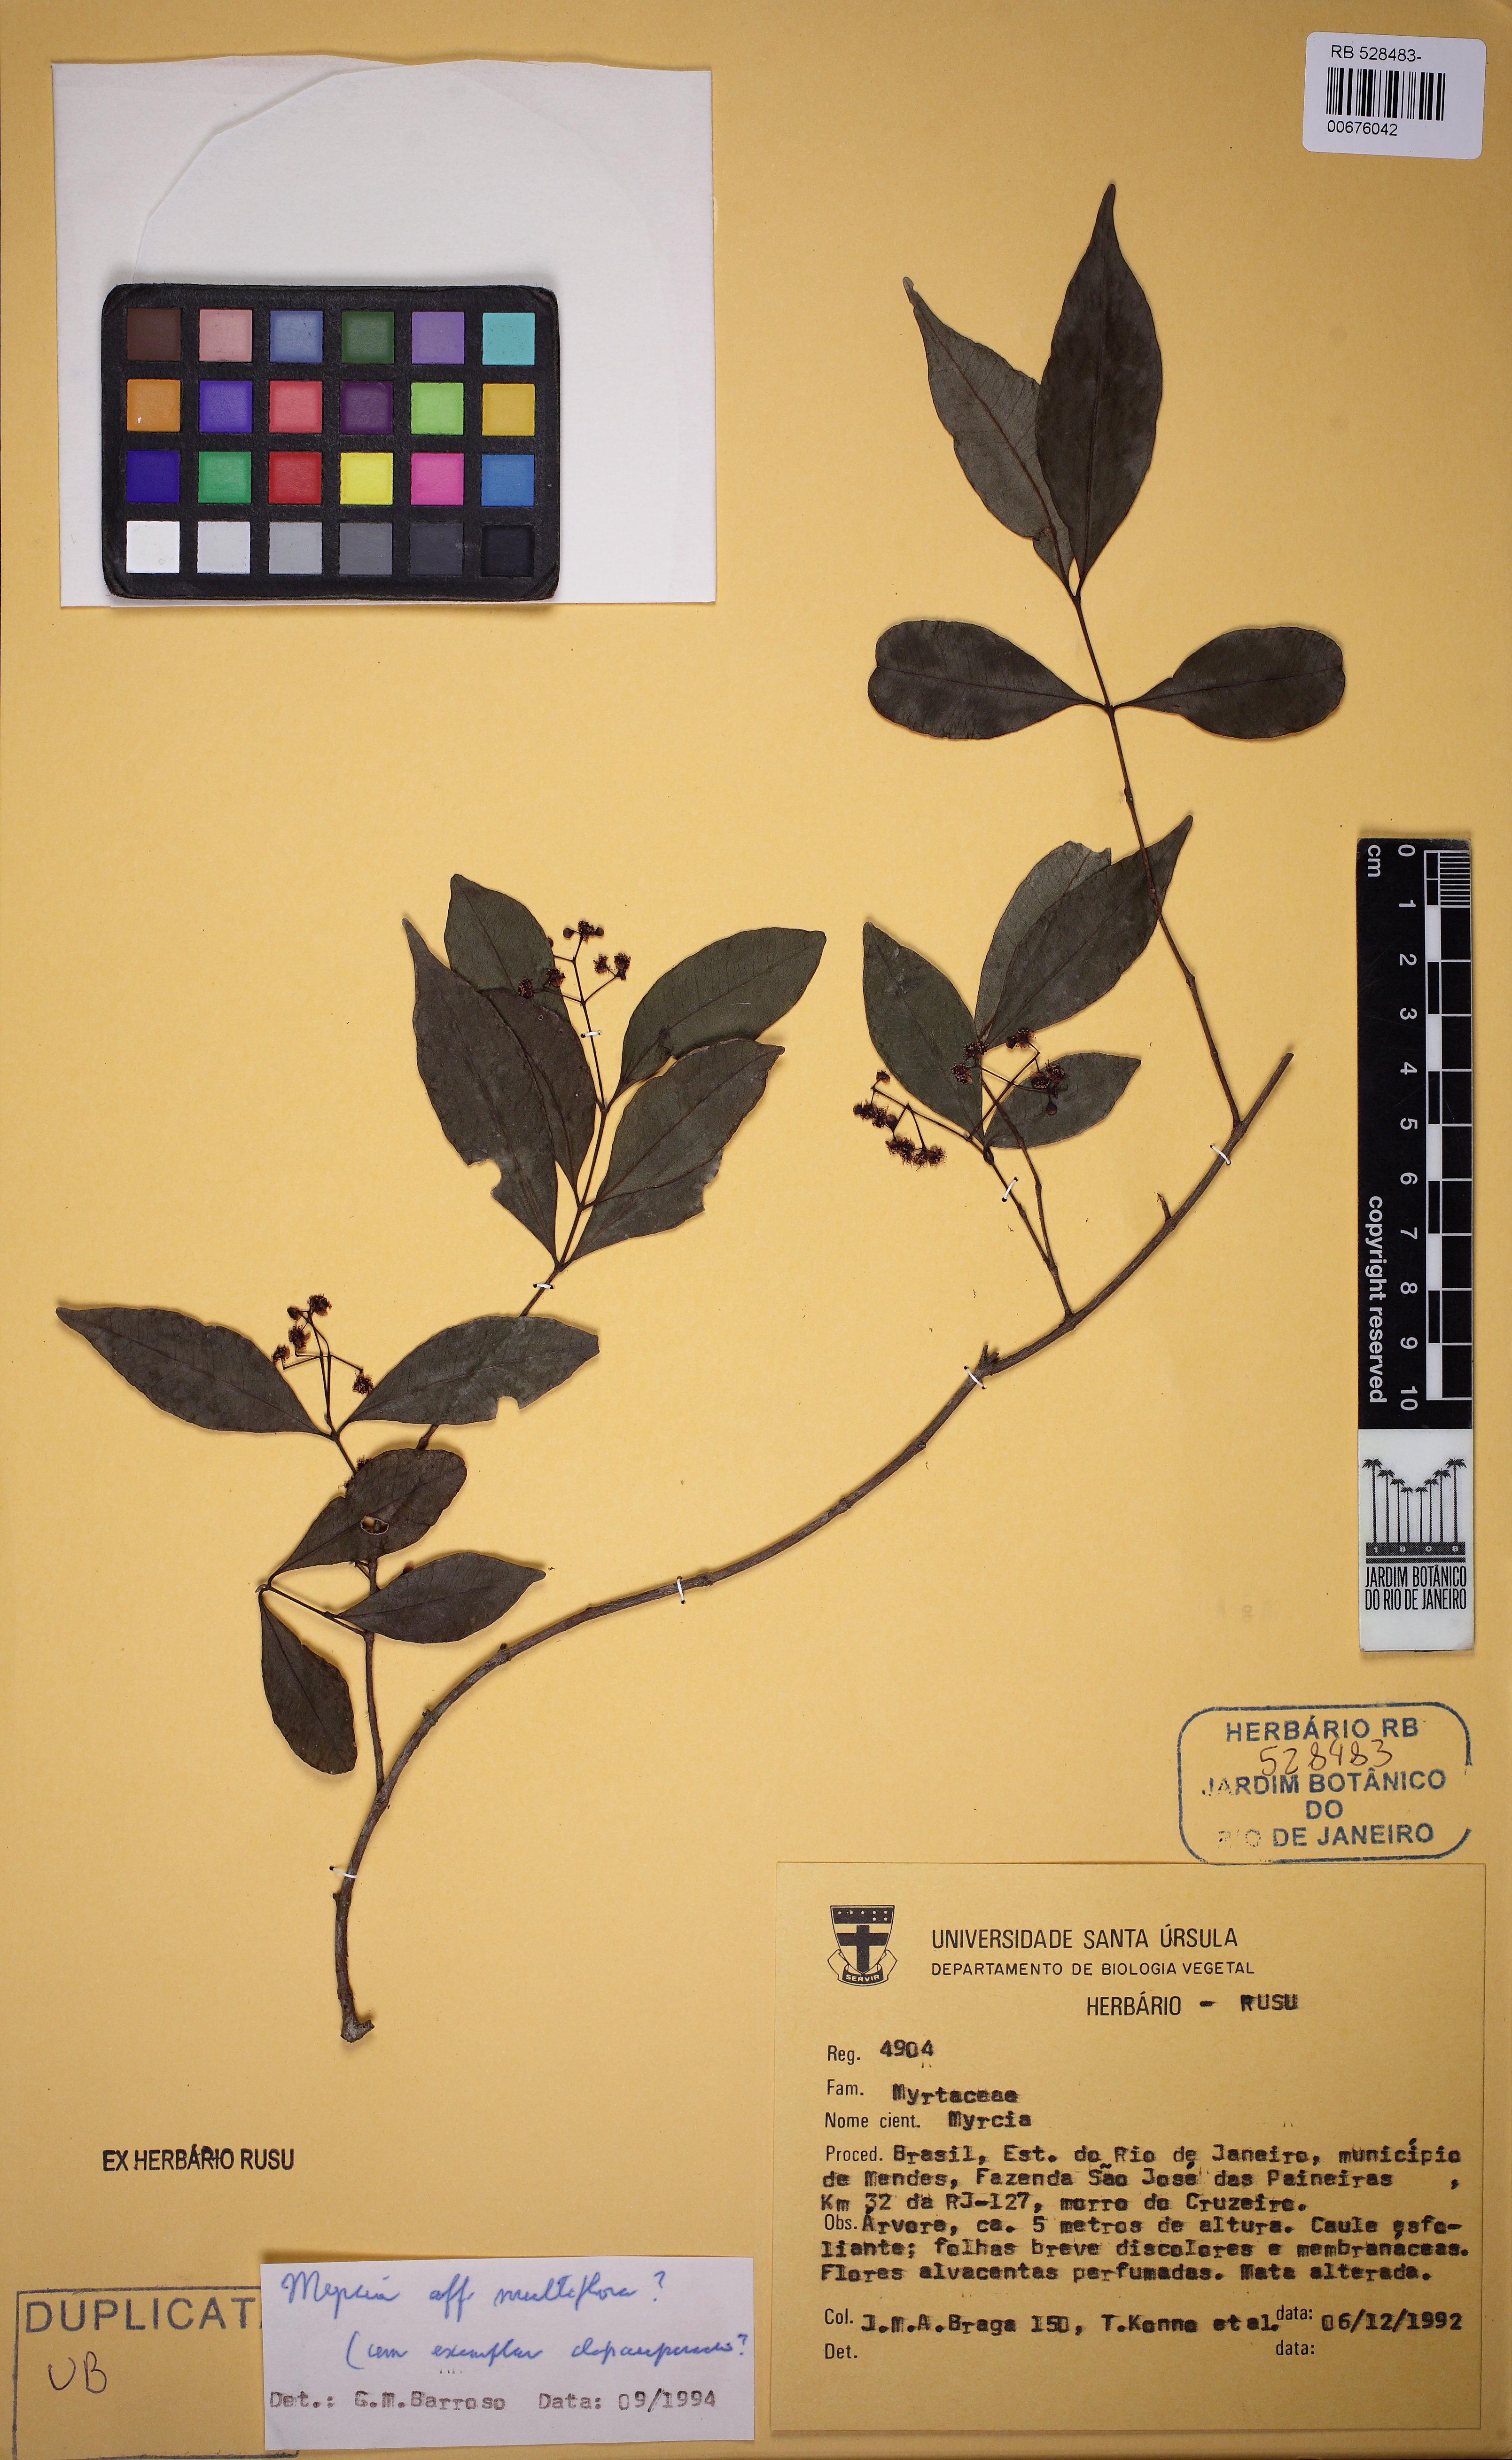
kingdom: Plantae
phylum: Tracheophyta
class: Magnoliopsida
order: Myrtales
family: Myrtaceae
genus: Myrcia
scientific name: Myrcia multiflora
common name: Pedra hume
